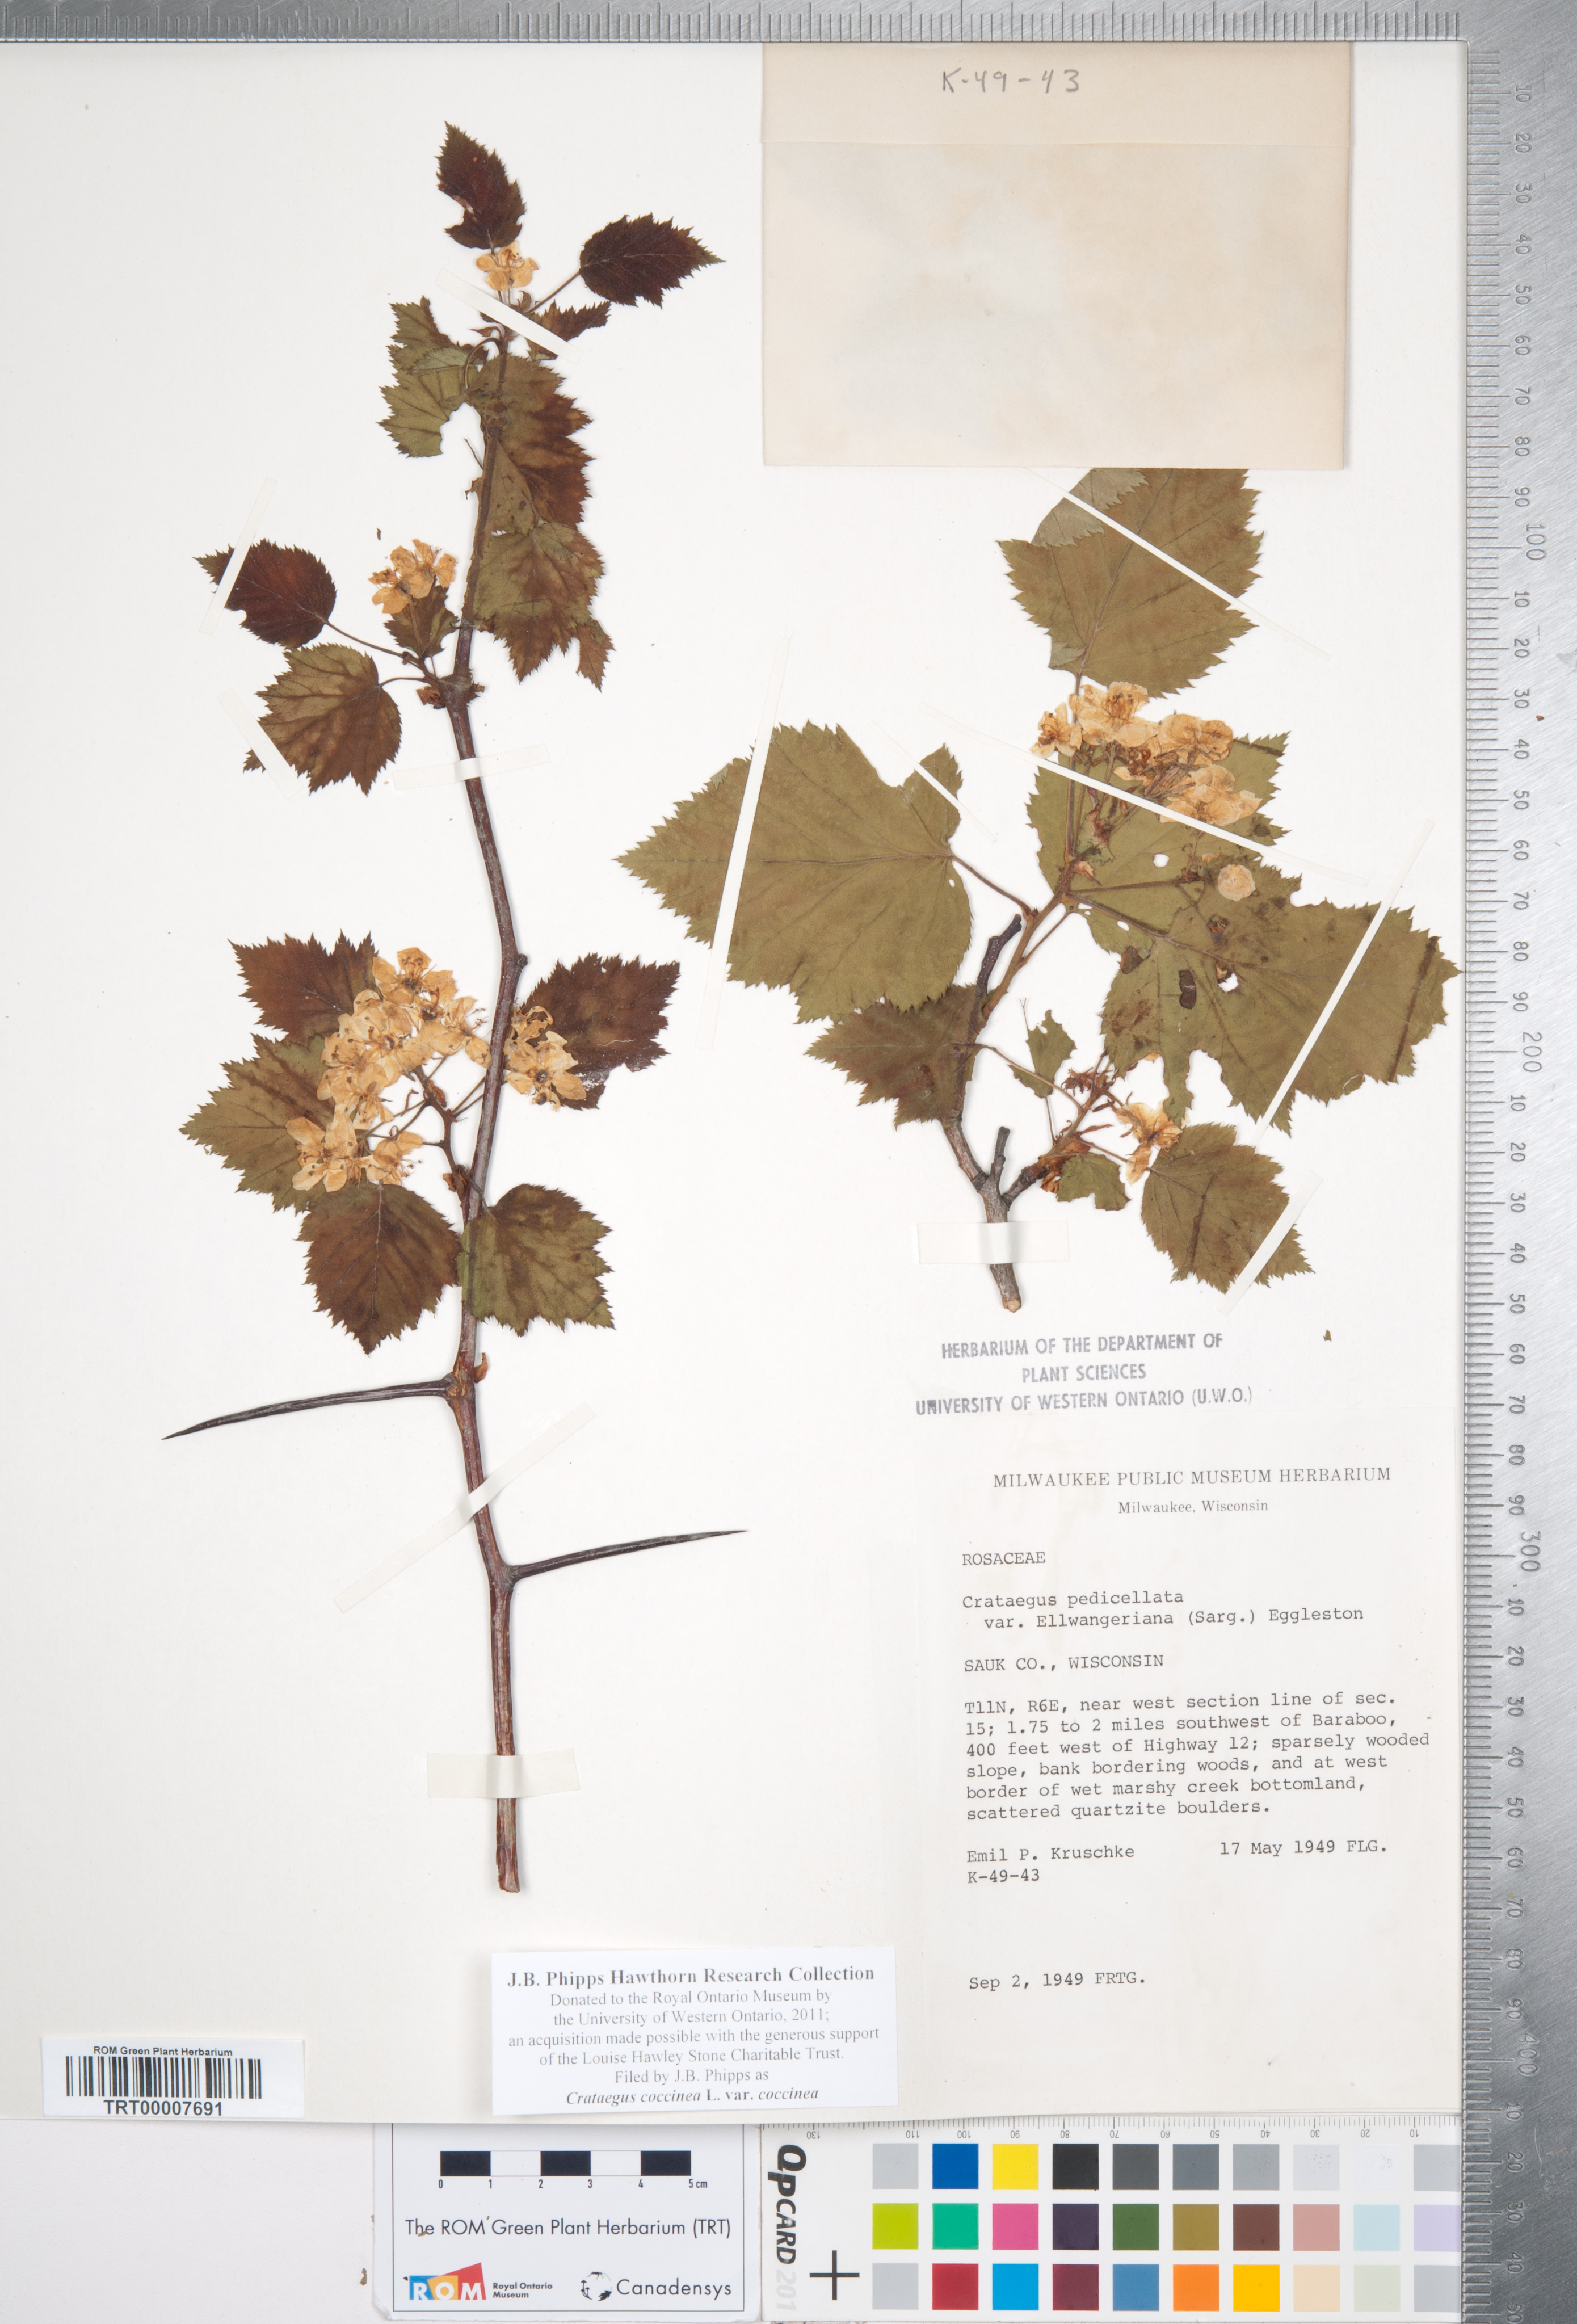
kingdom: Plantae
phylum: Tracheophyta
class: Magnoliopsida
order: Rosales
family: Rosaceae
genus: Crataegus
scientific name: Crataegus coccinea
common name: Scarlet hawthorn
